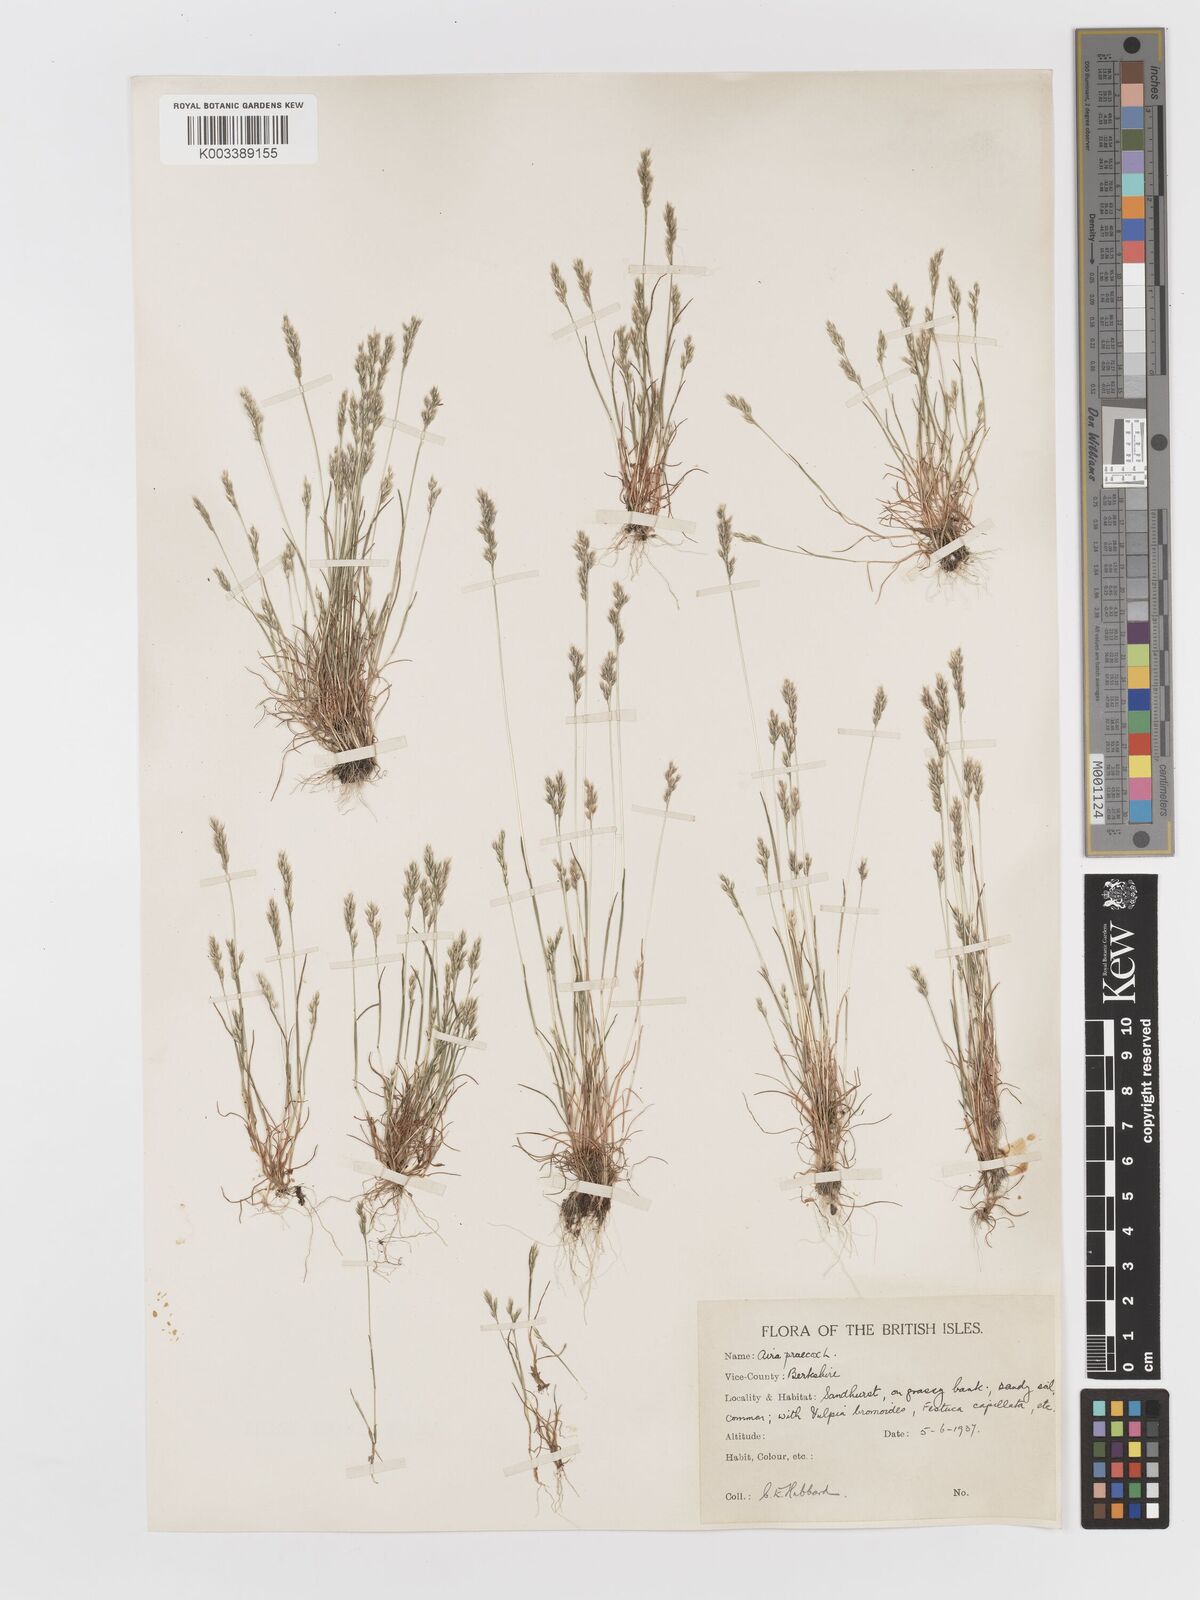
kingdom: Plantae
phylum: Tracheophyta
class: Liliopsida
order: Poales
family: Poaceae
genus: Aira
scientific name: Aira praecox
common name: Early hair-grass
